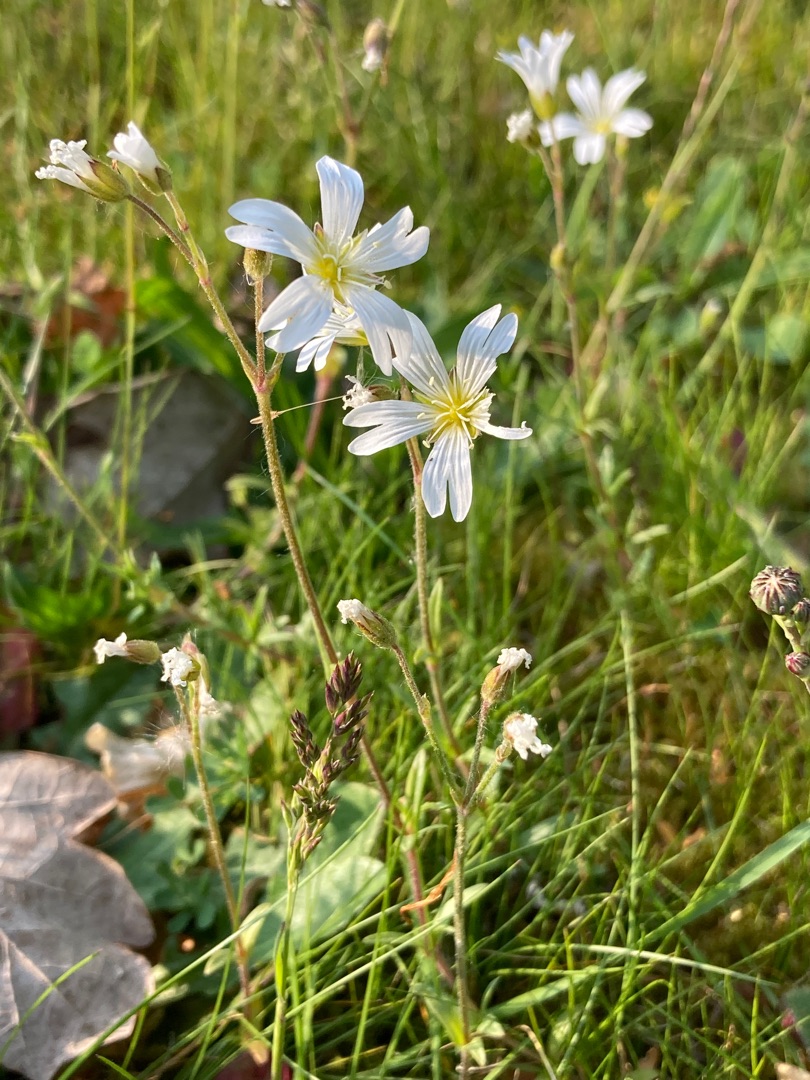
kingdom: Plantae
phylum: Tracheophyta
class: Magnoliopsida
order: Caryophyllales
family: Caryophyllaceae
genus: Cerastium
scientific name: Cerastium arvense
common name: Storblomstret hønsetarm
